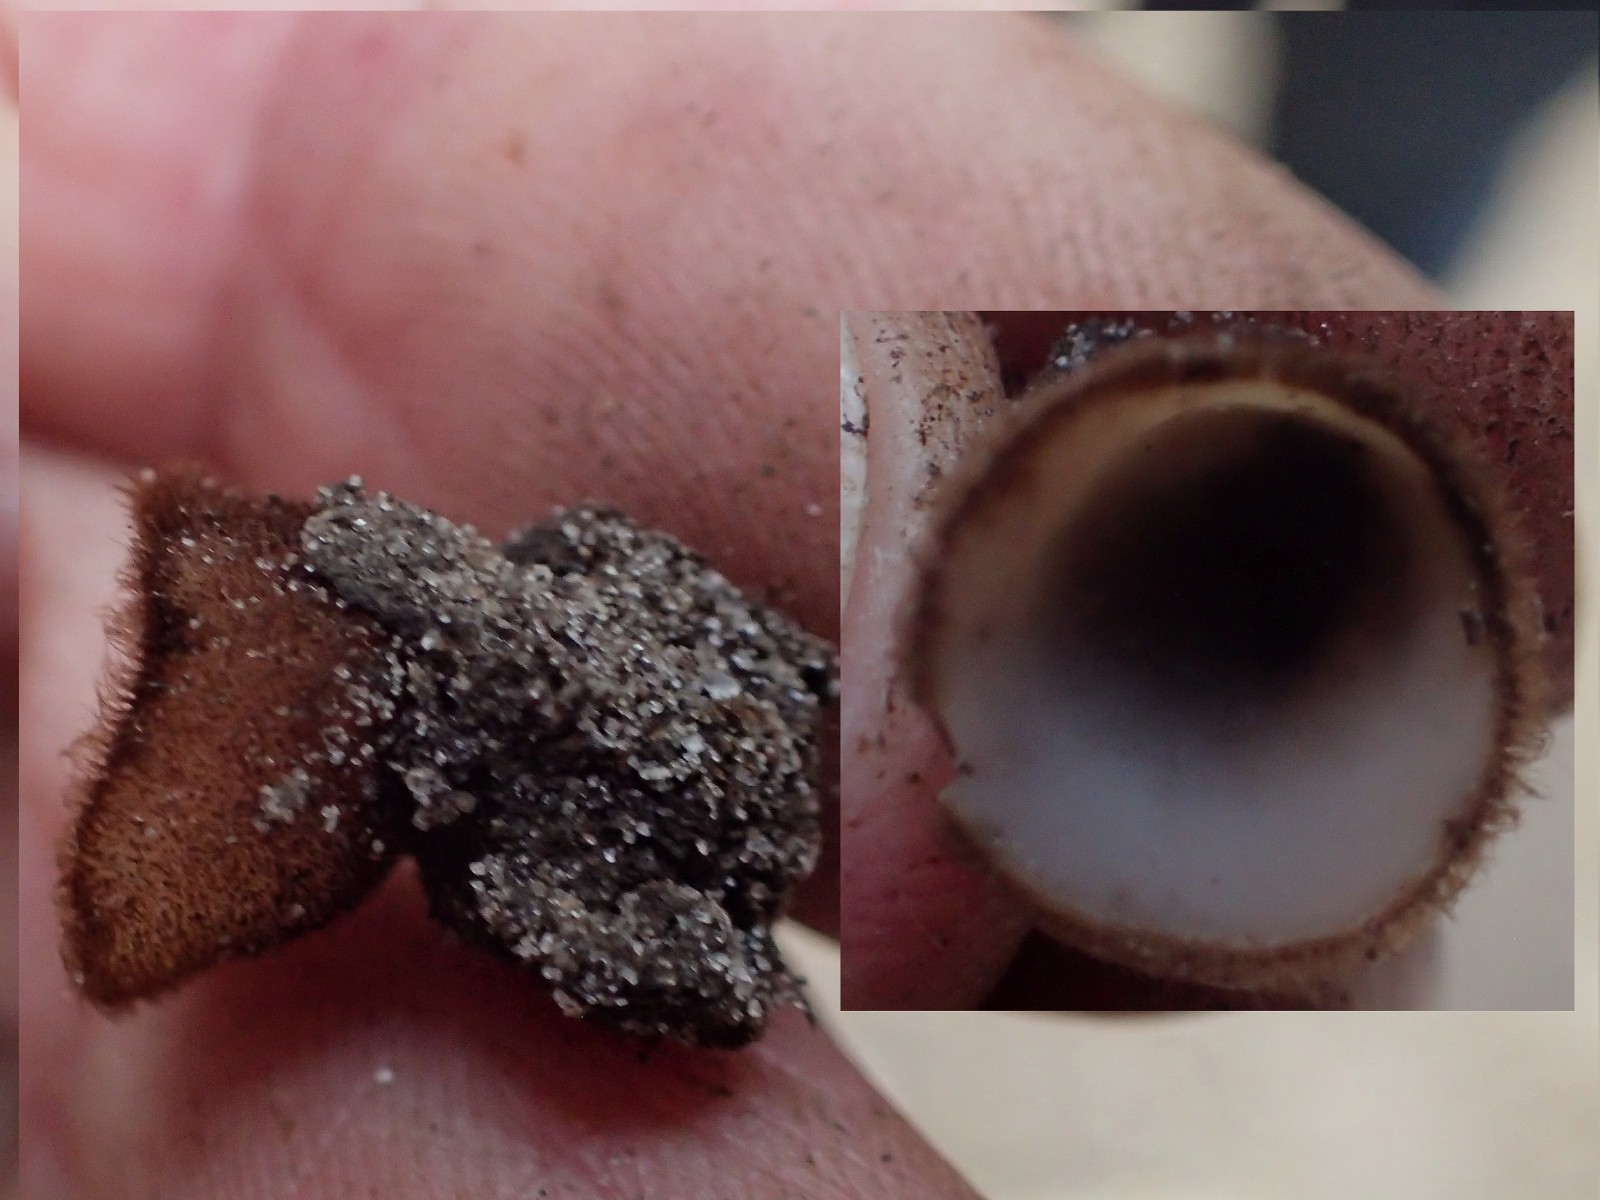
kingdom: Fungi
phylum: Ascomycota
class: Pezizomycetes
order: Pezizales
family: Pyronemataceae
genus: Humaria
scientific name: Humaria hemisphaerica
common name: halvkugleformet børstebæger
